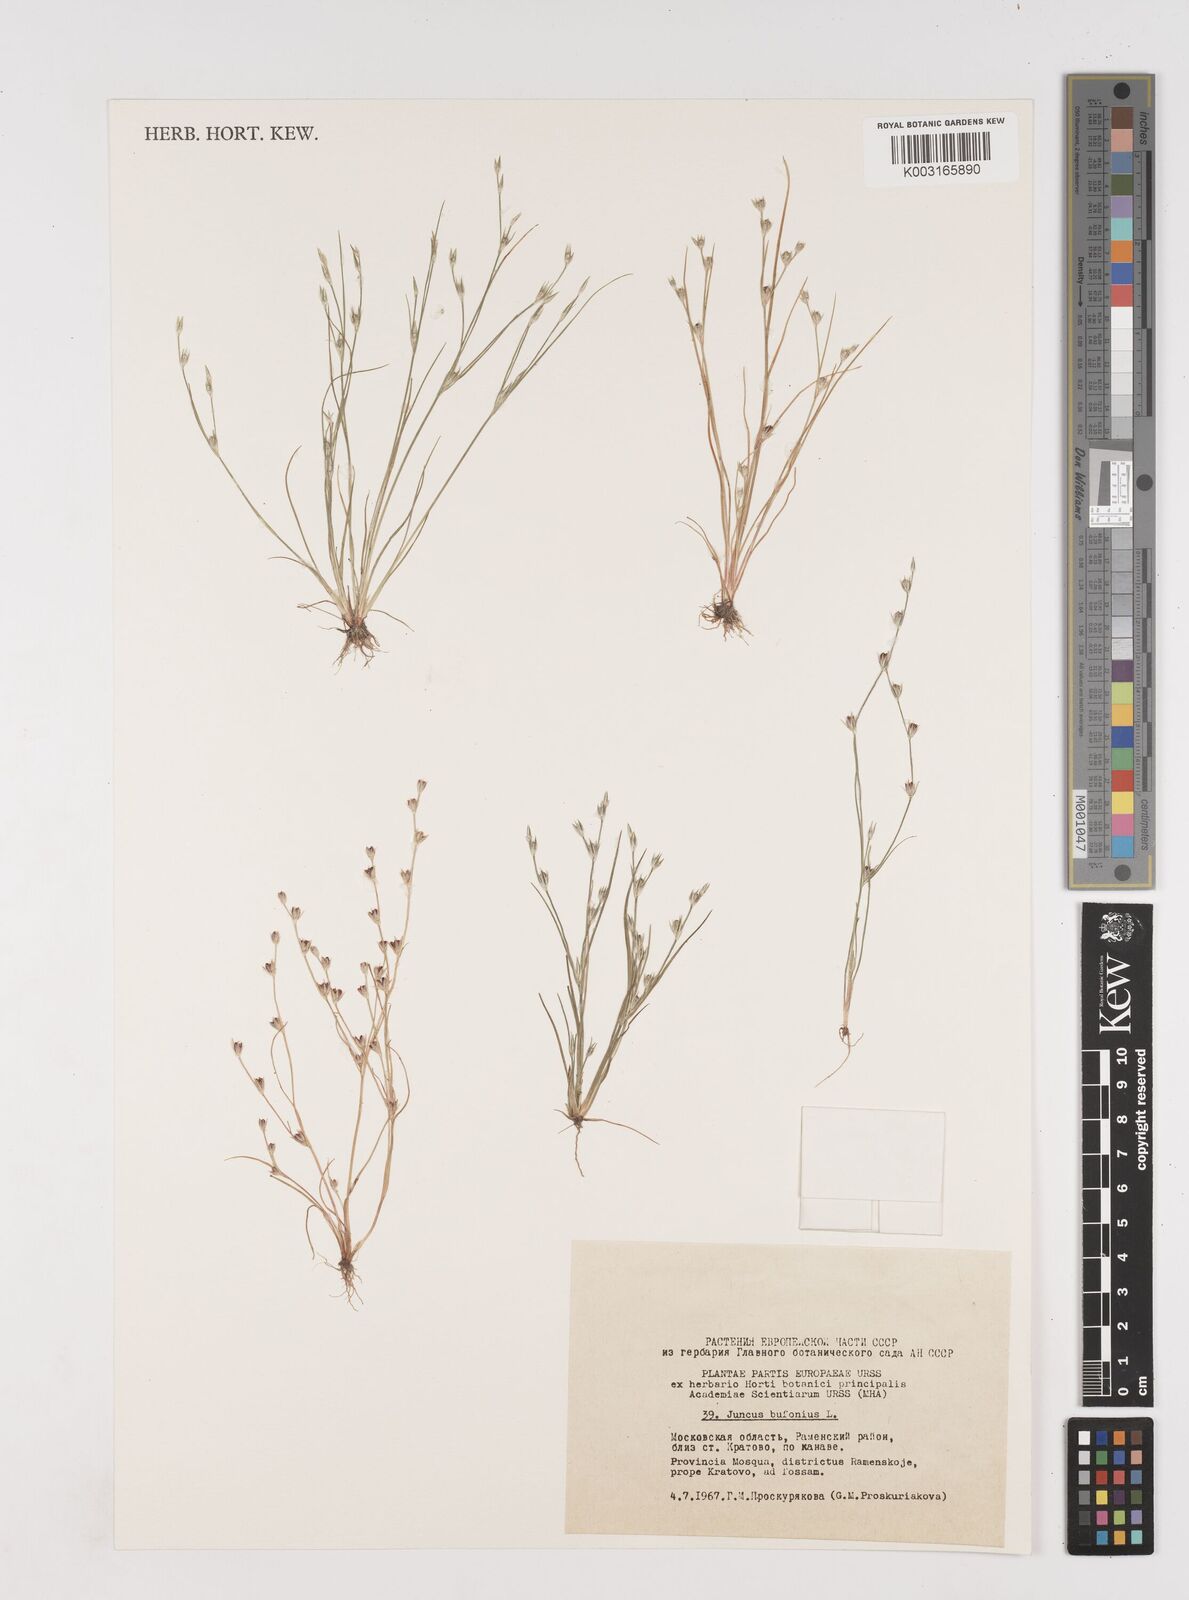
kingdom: Plantae
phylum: Tracheophyta
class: Liliopsida
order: Poales
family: Juncaceae
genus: Juncus
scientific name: Juncus bufonius
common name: Toad rush
